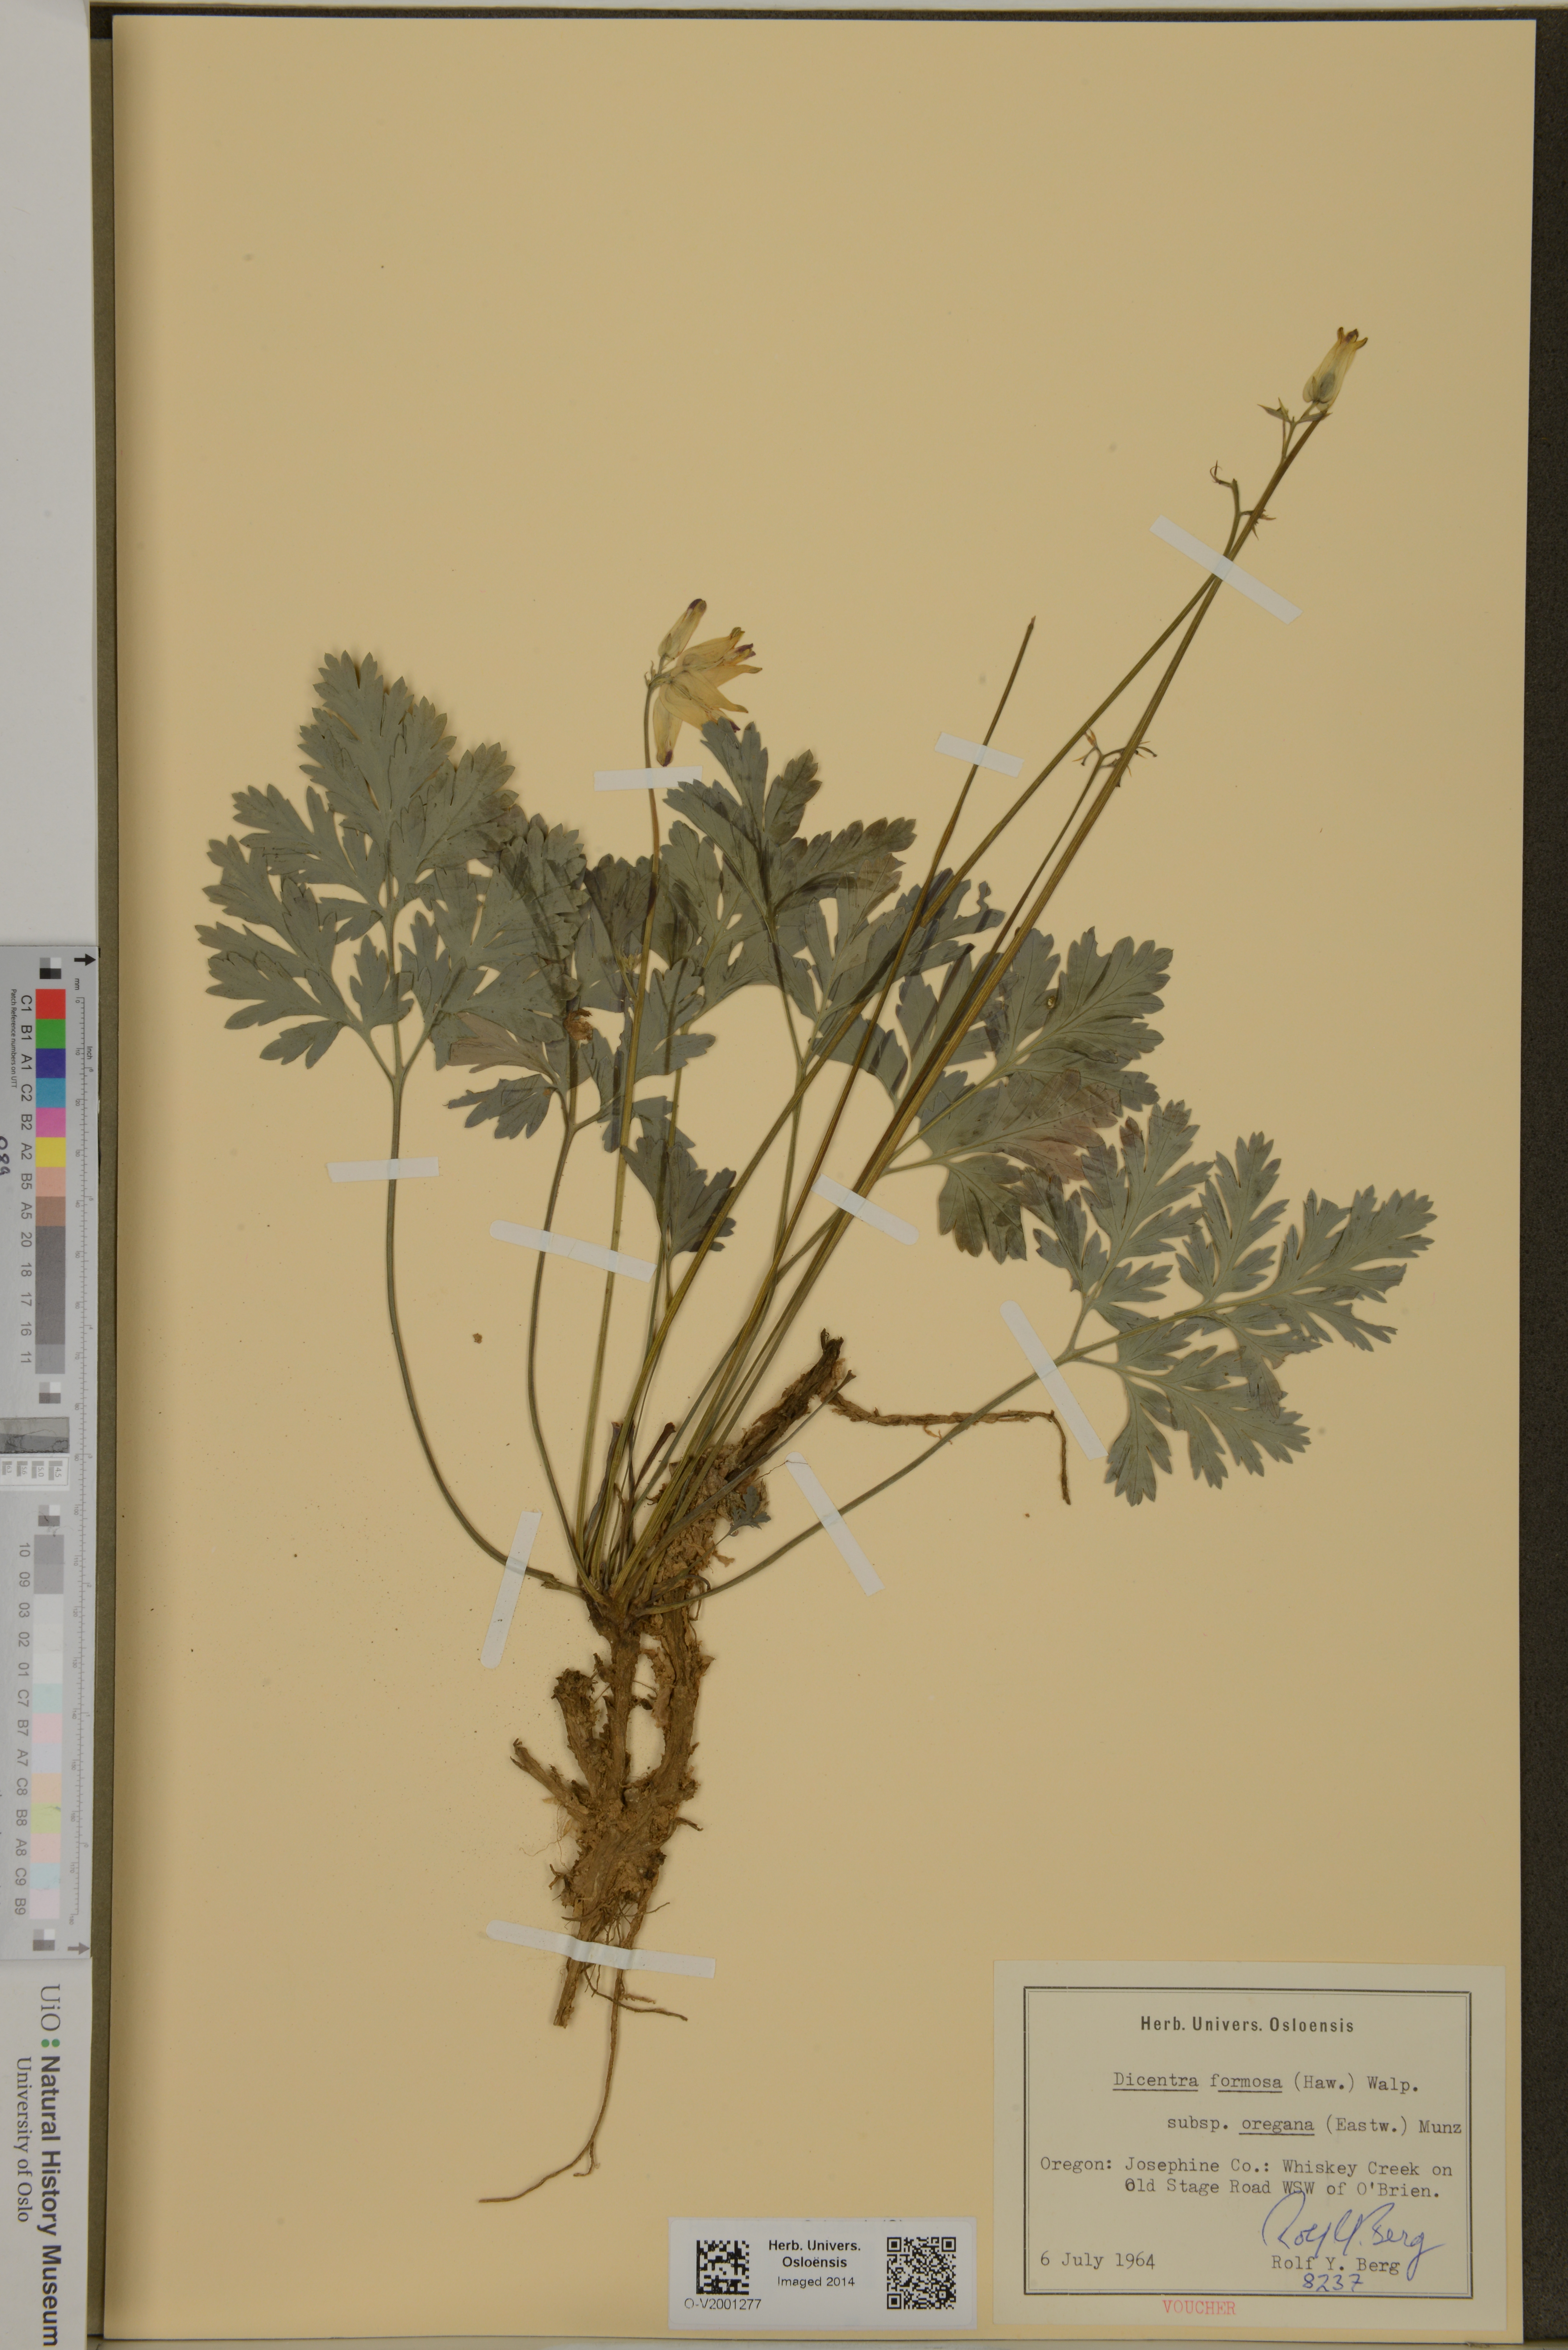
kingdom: Plantae
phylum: Tracheophyta
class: Magnoliopsida
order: Ranunculales
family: Papaveraceae
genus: Dicentra
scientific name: Dicentra formosa
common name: Bleeding-heart
